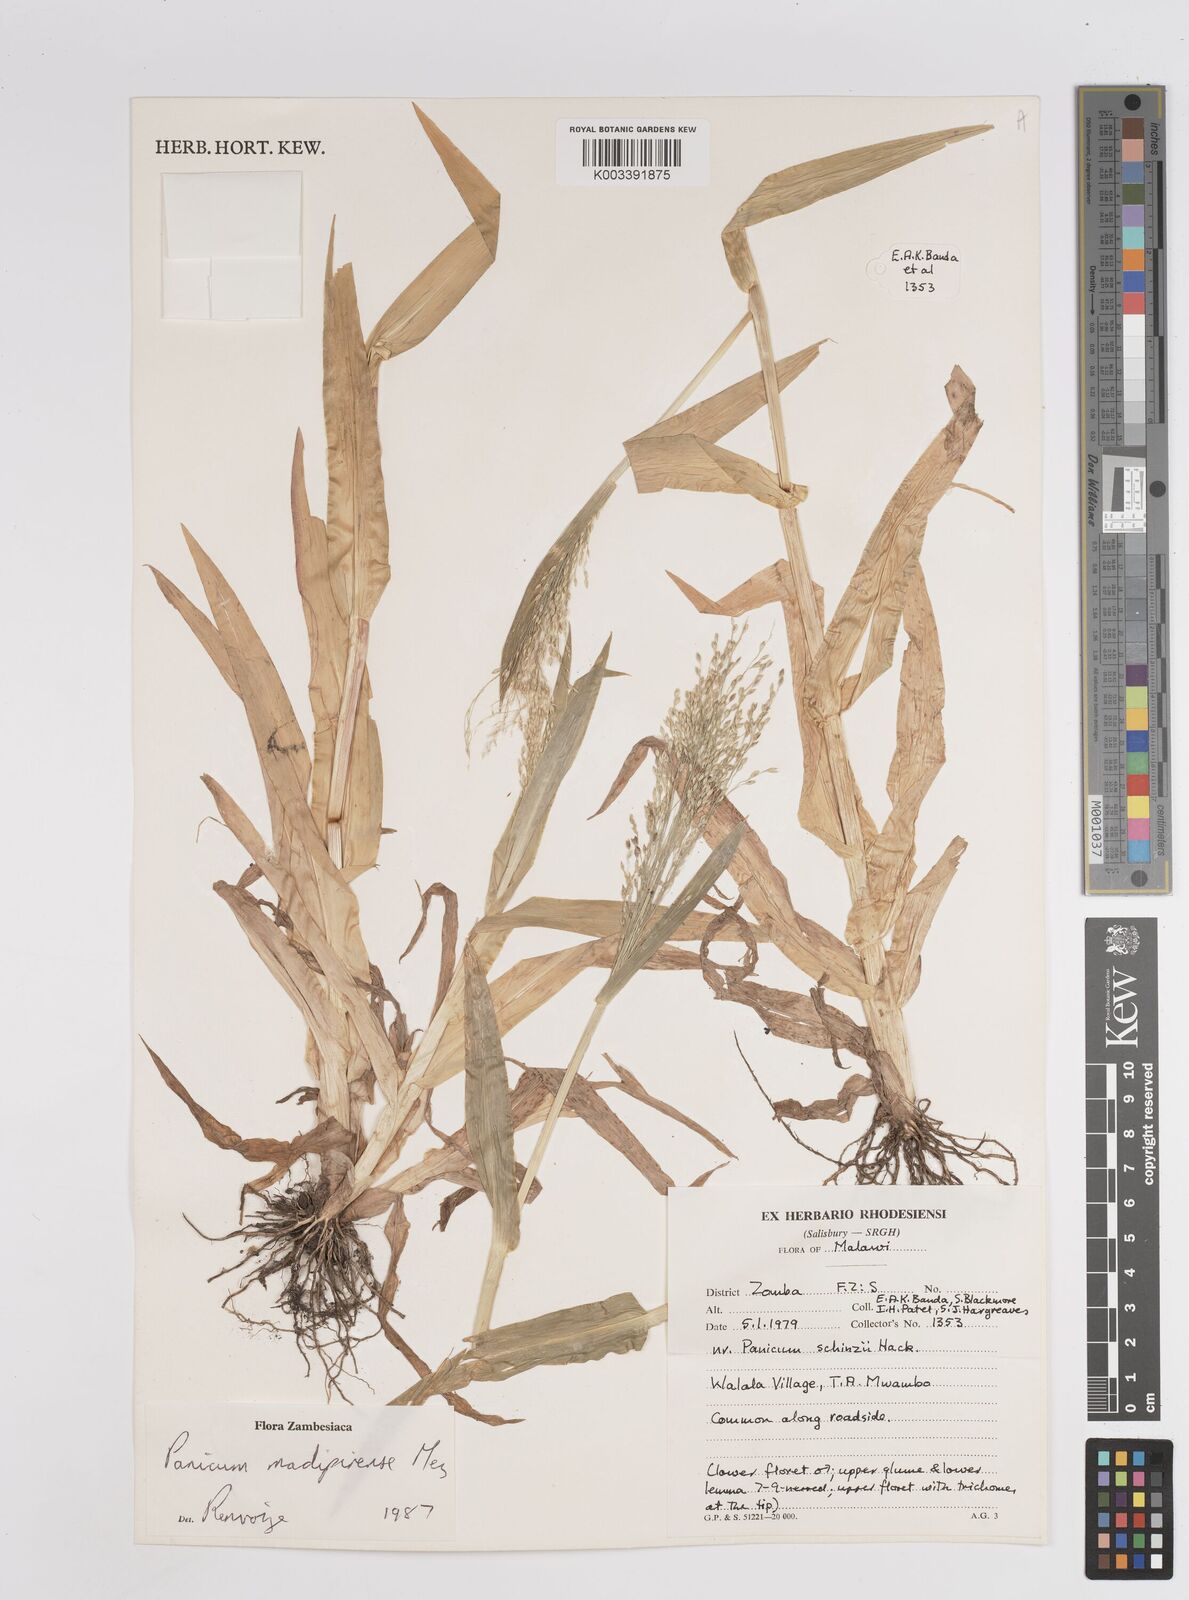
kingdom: Plantae
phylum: Tracheophyta
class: Liliopsida
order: Poales
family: Poaceae
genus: Panicum
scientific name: Panicum madipirense
